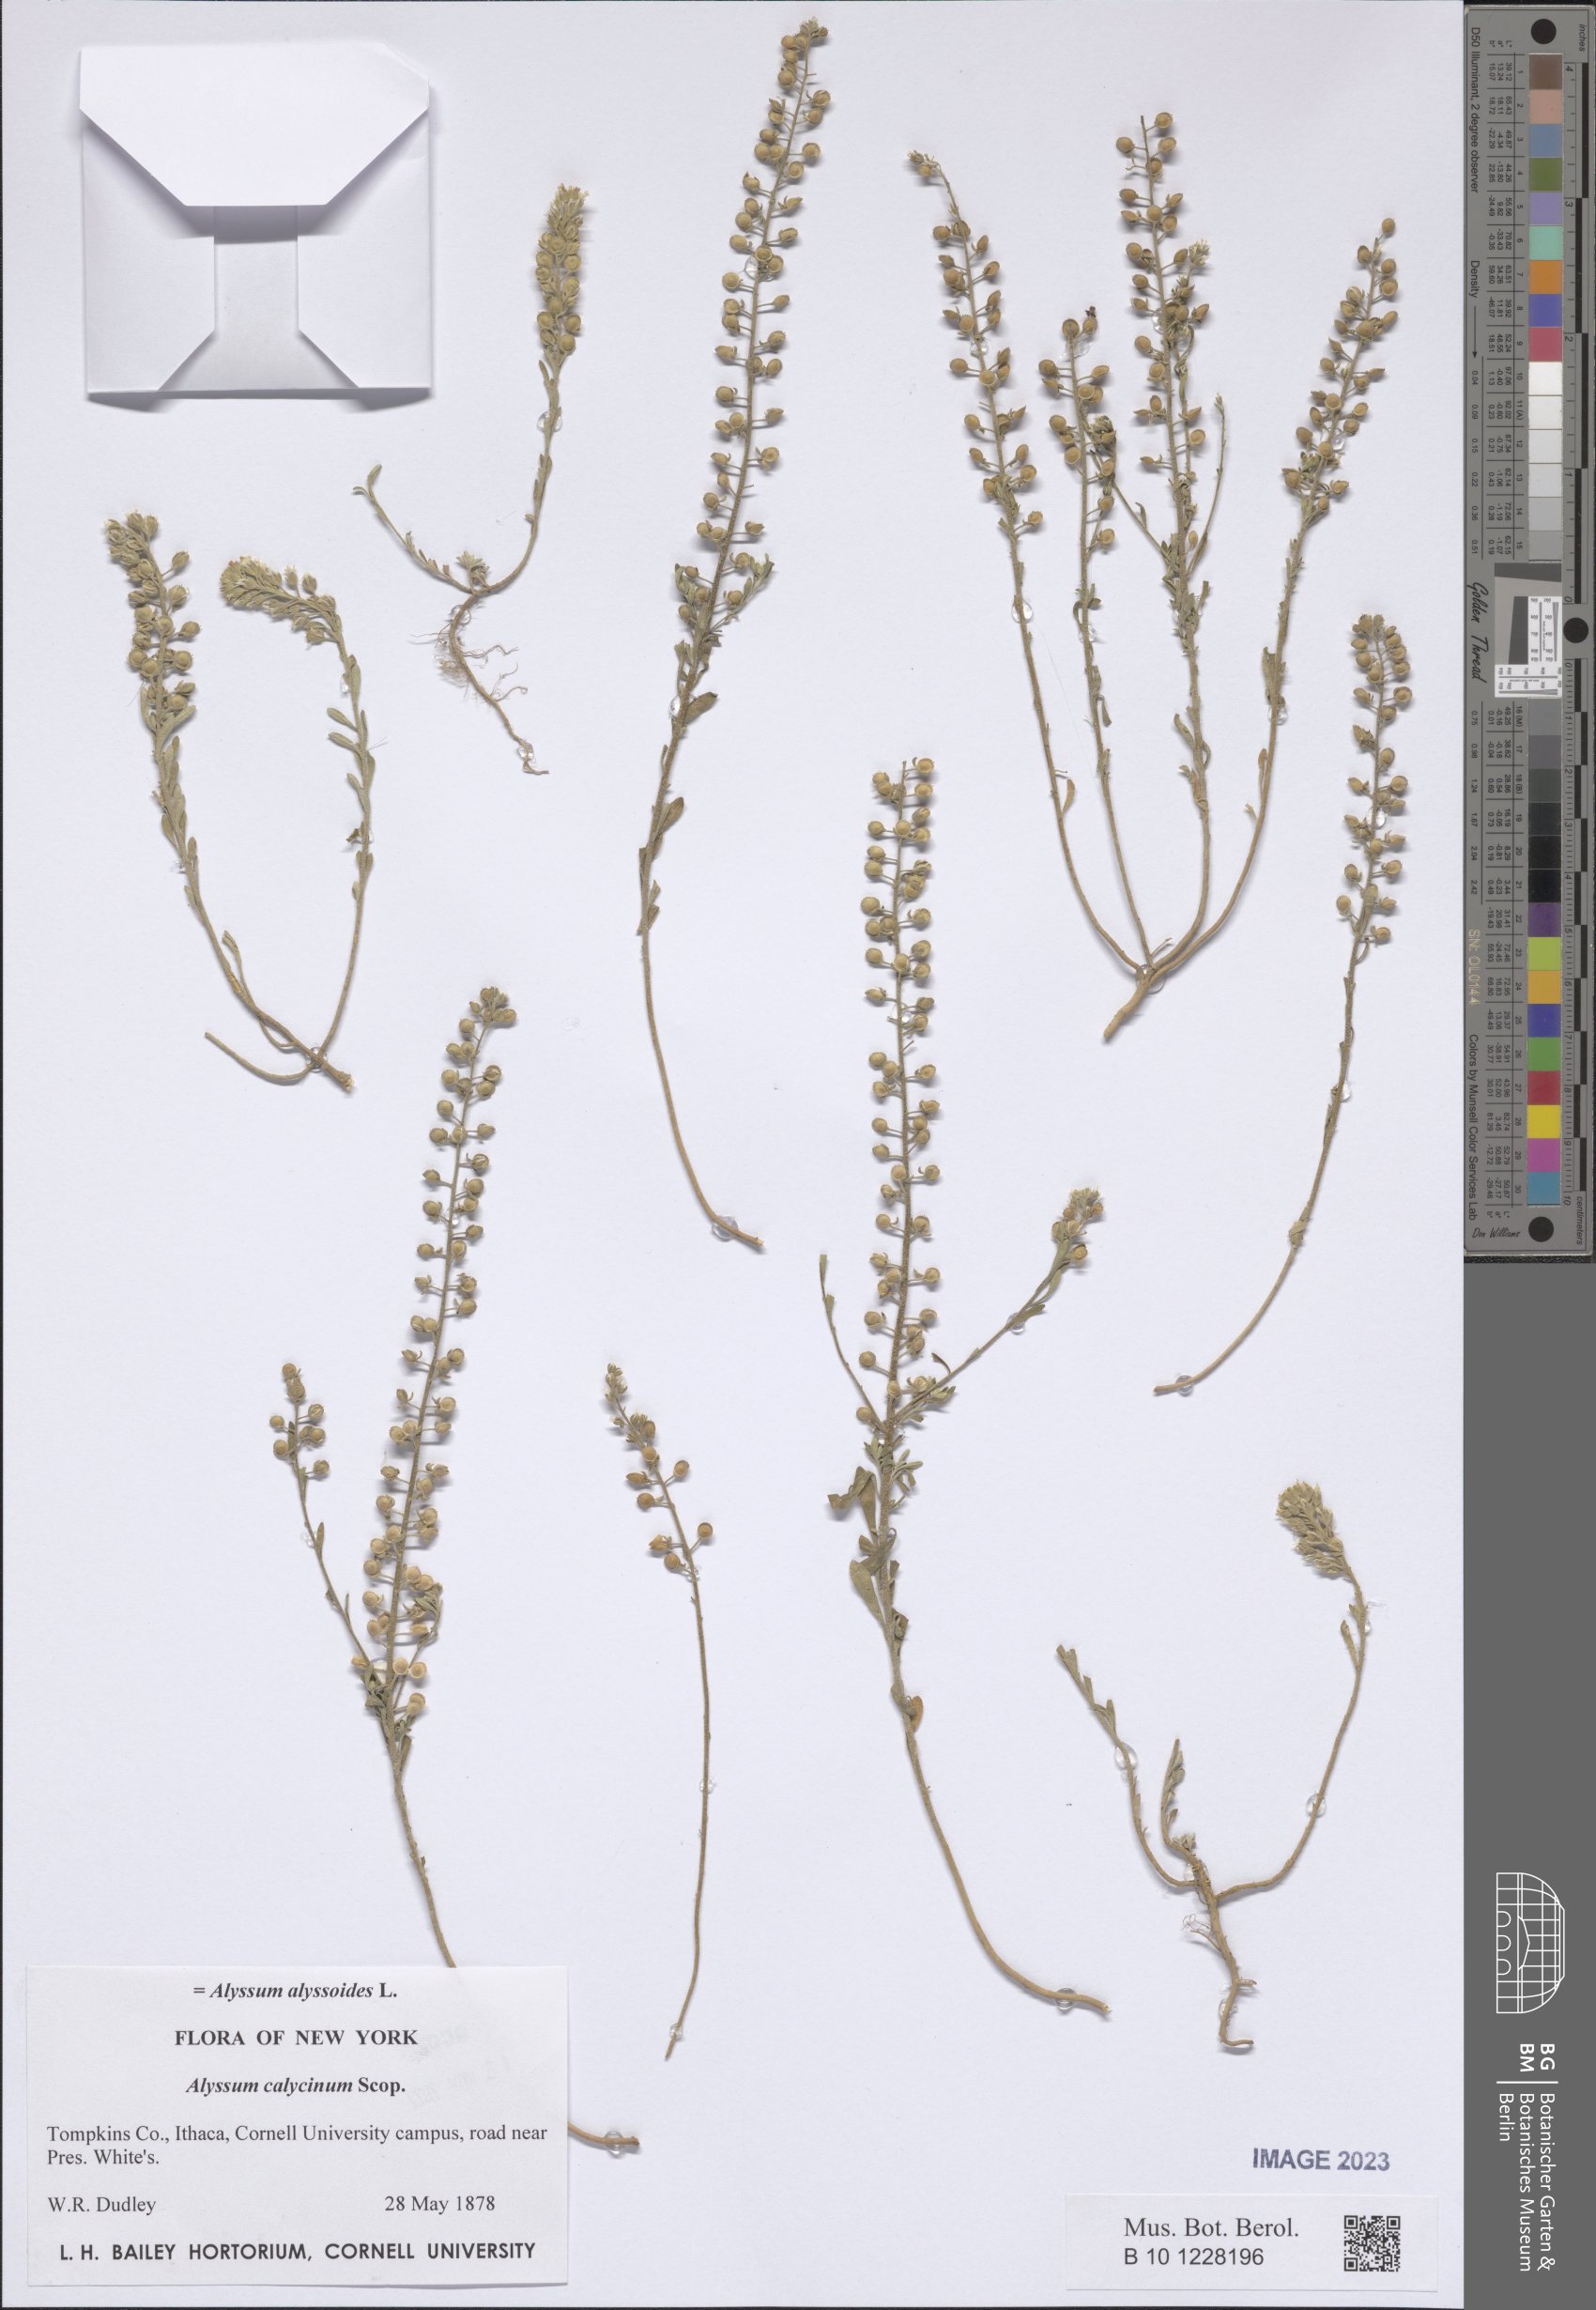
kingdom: Plantae
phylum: Tracheophyta
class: Magnoliopsida
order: Brassicales
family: Brassicaceae
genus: Alyssum
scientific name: Alyssum alyssoides
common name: Small alison
